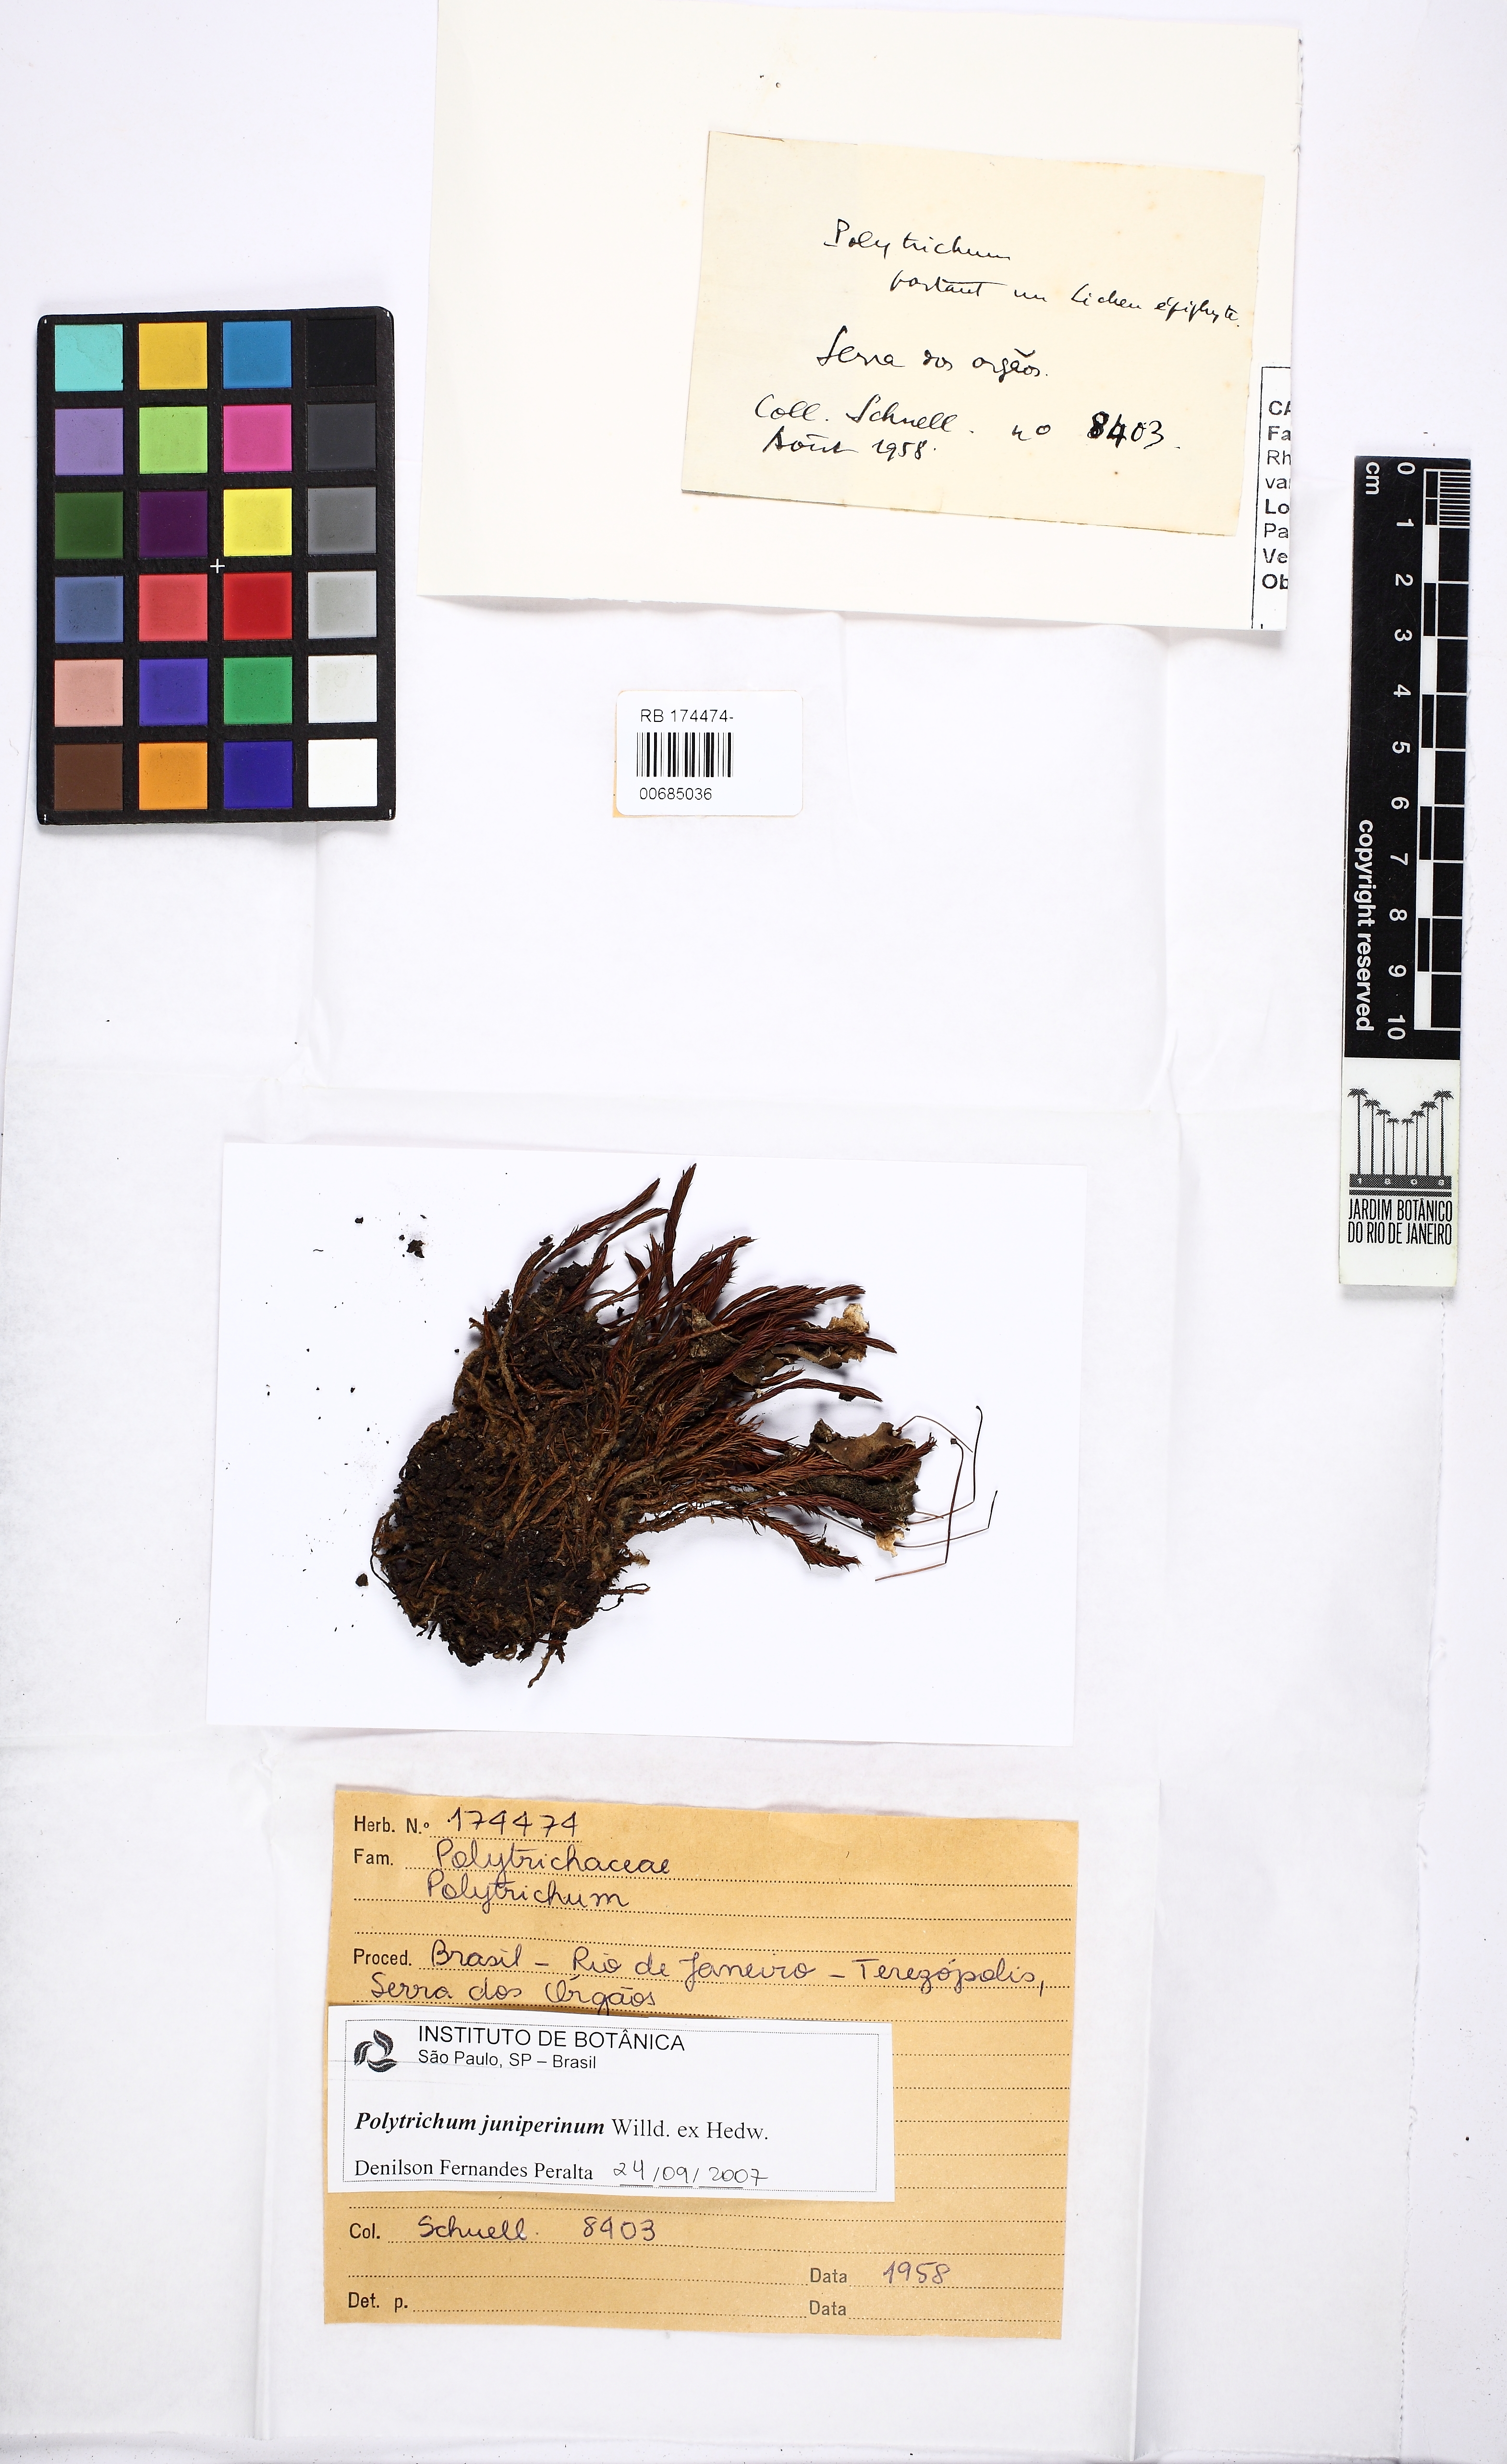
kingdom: Plantae
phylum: Bryophyta
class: Polytrichopsida
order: Polytrichales
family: Polytrichaceae
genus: Polytrichum
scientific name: Polytrichum juniperinum
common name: Juniper haircap moss
